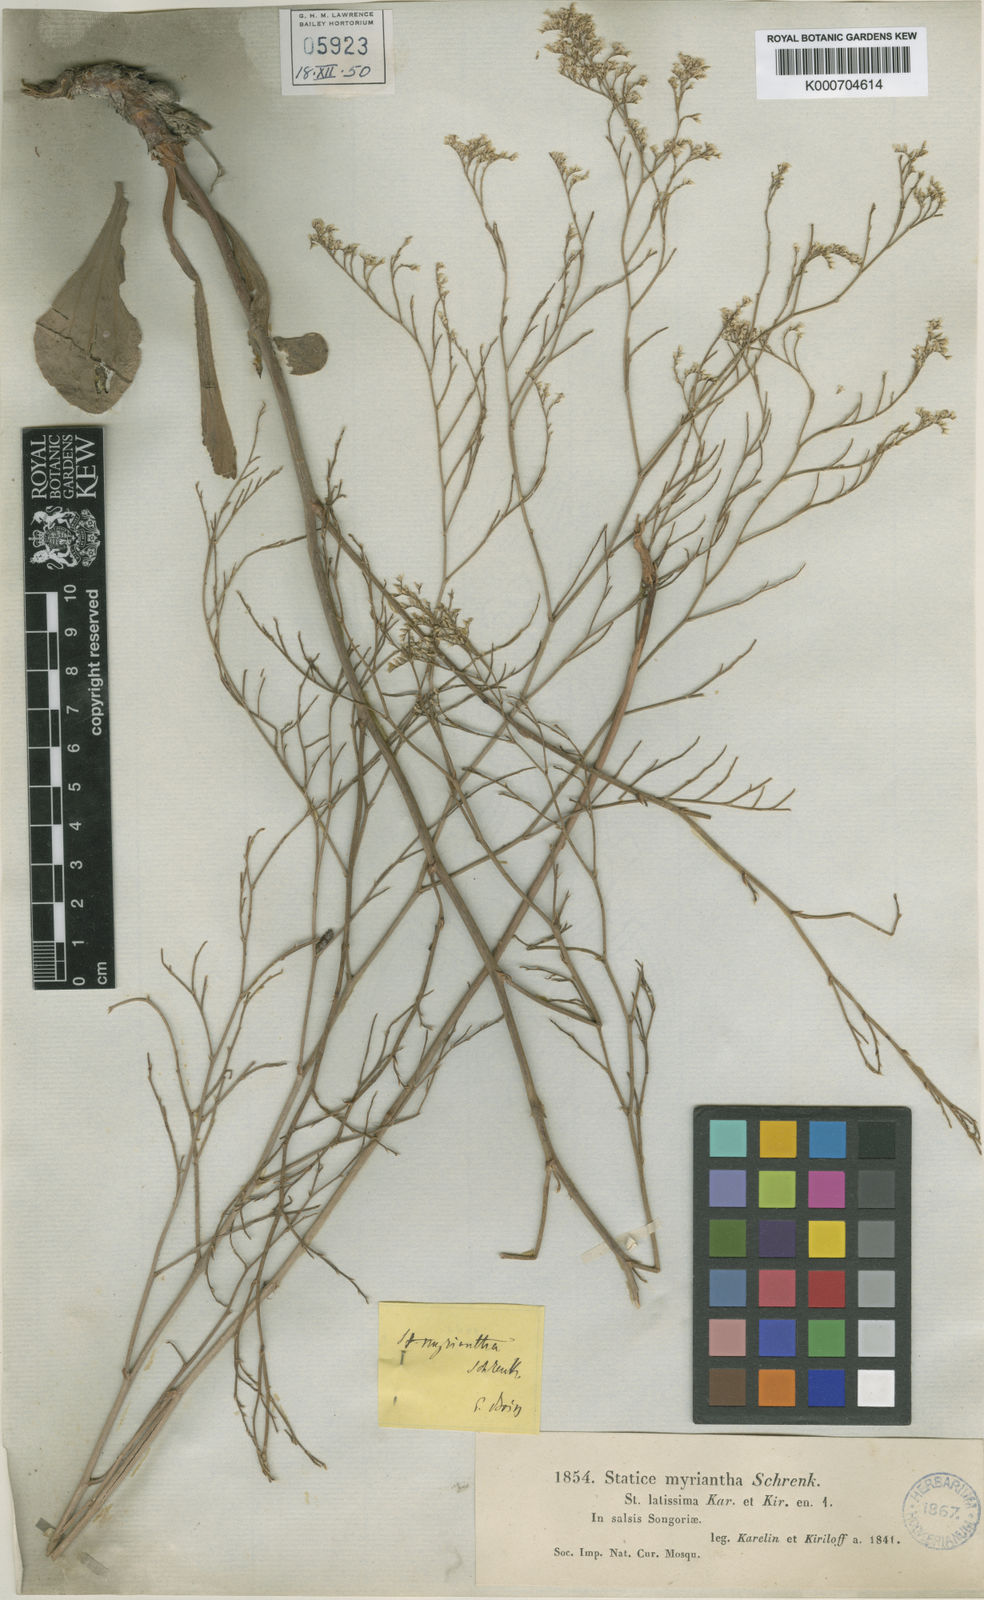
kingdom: Plantae
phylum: Tracheophyta
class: Magnoliopsida
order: Caryophyllales
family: Plumbaginaceae
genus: Limonium
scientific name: Limonium myrianthum
